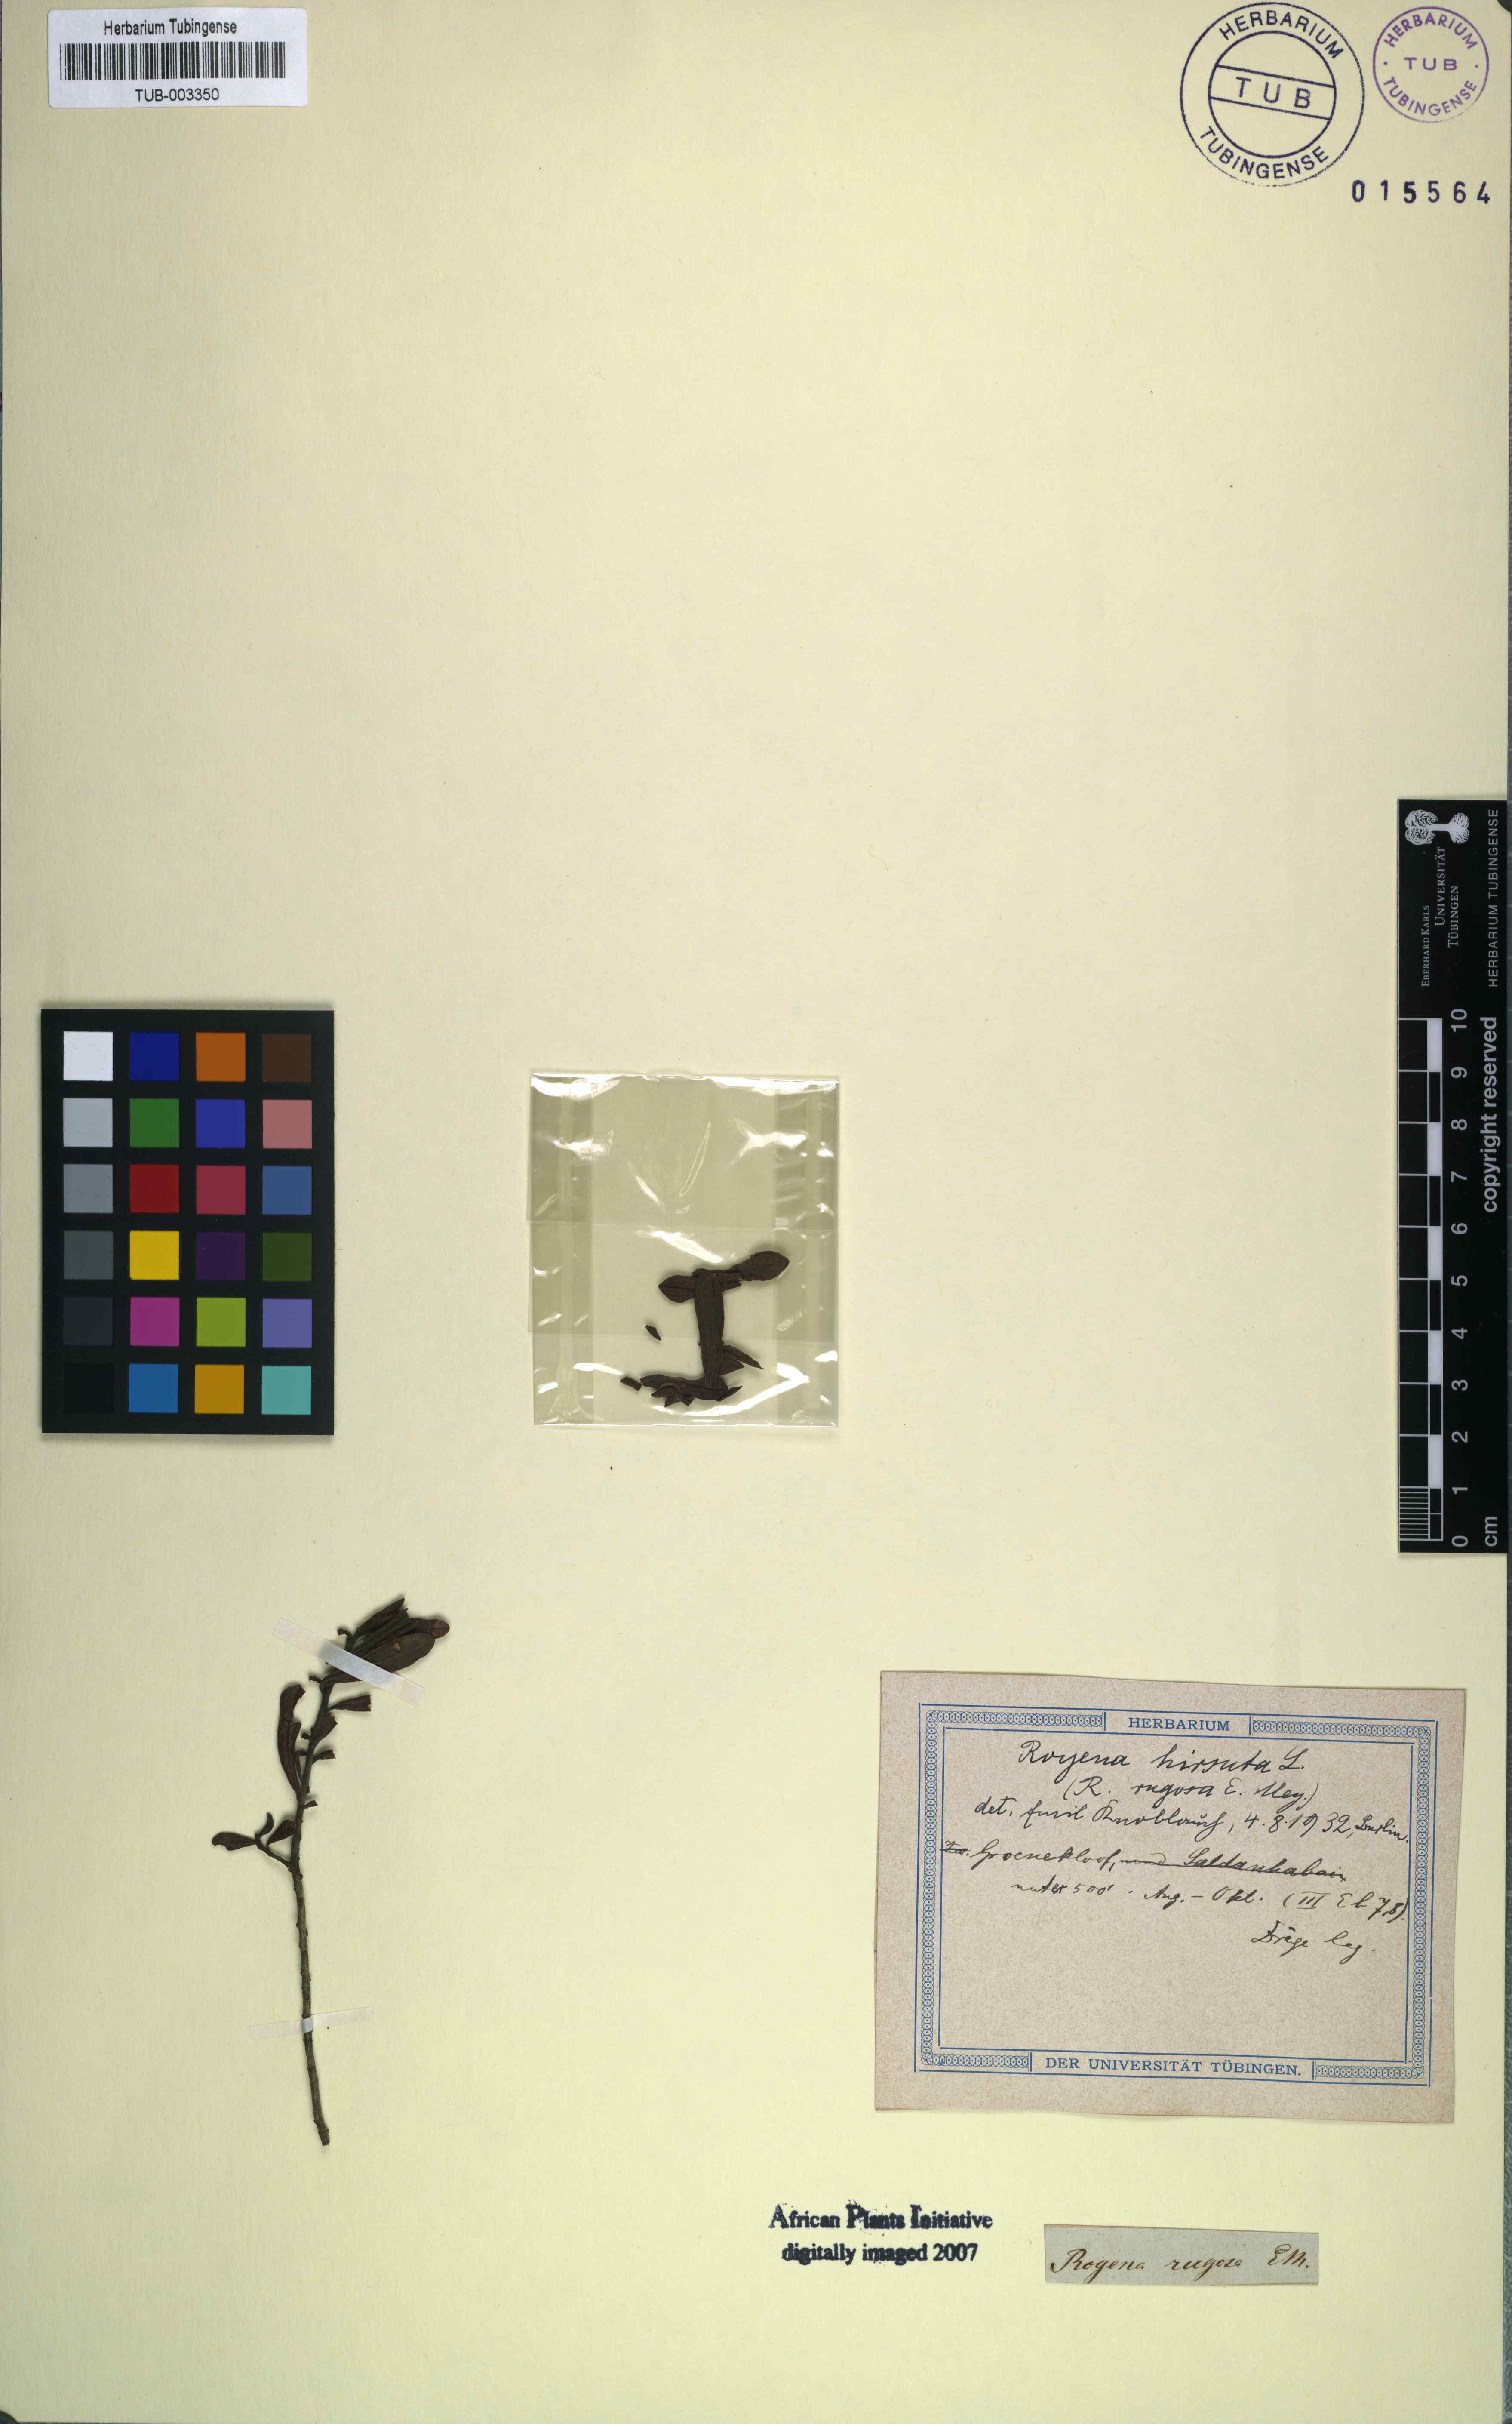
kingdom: Plantae
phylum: Tracheophyta
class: Magnoliopsida
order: Ericales
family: Ebenaceae
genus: Diospyros
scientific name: Diospyros pubescens
